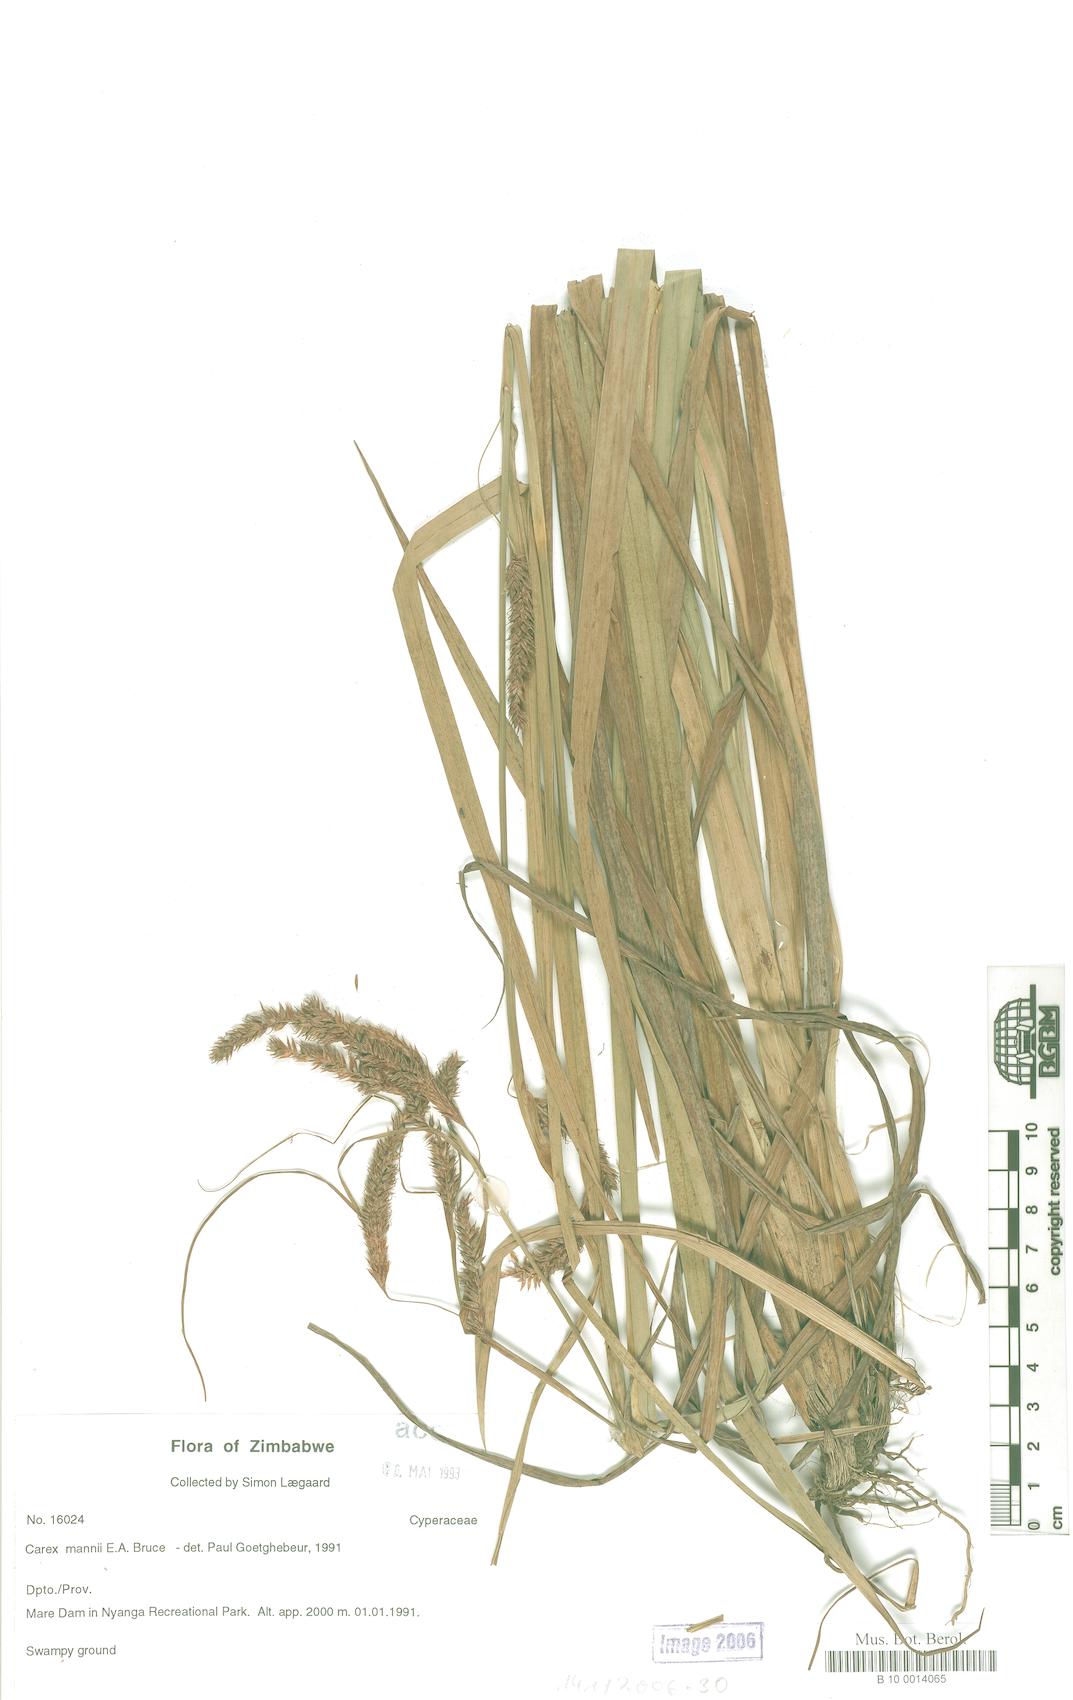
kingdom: Plantae
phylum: Tracheophyta
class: Liliopsida
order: Poales
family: Cyperaceae
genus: Carex
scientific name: Carex petitiana
